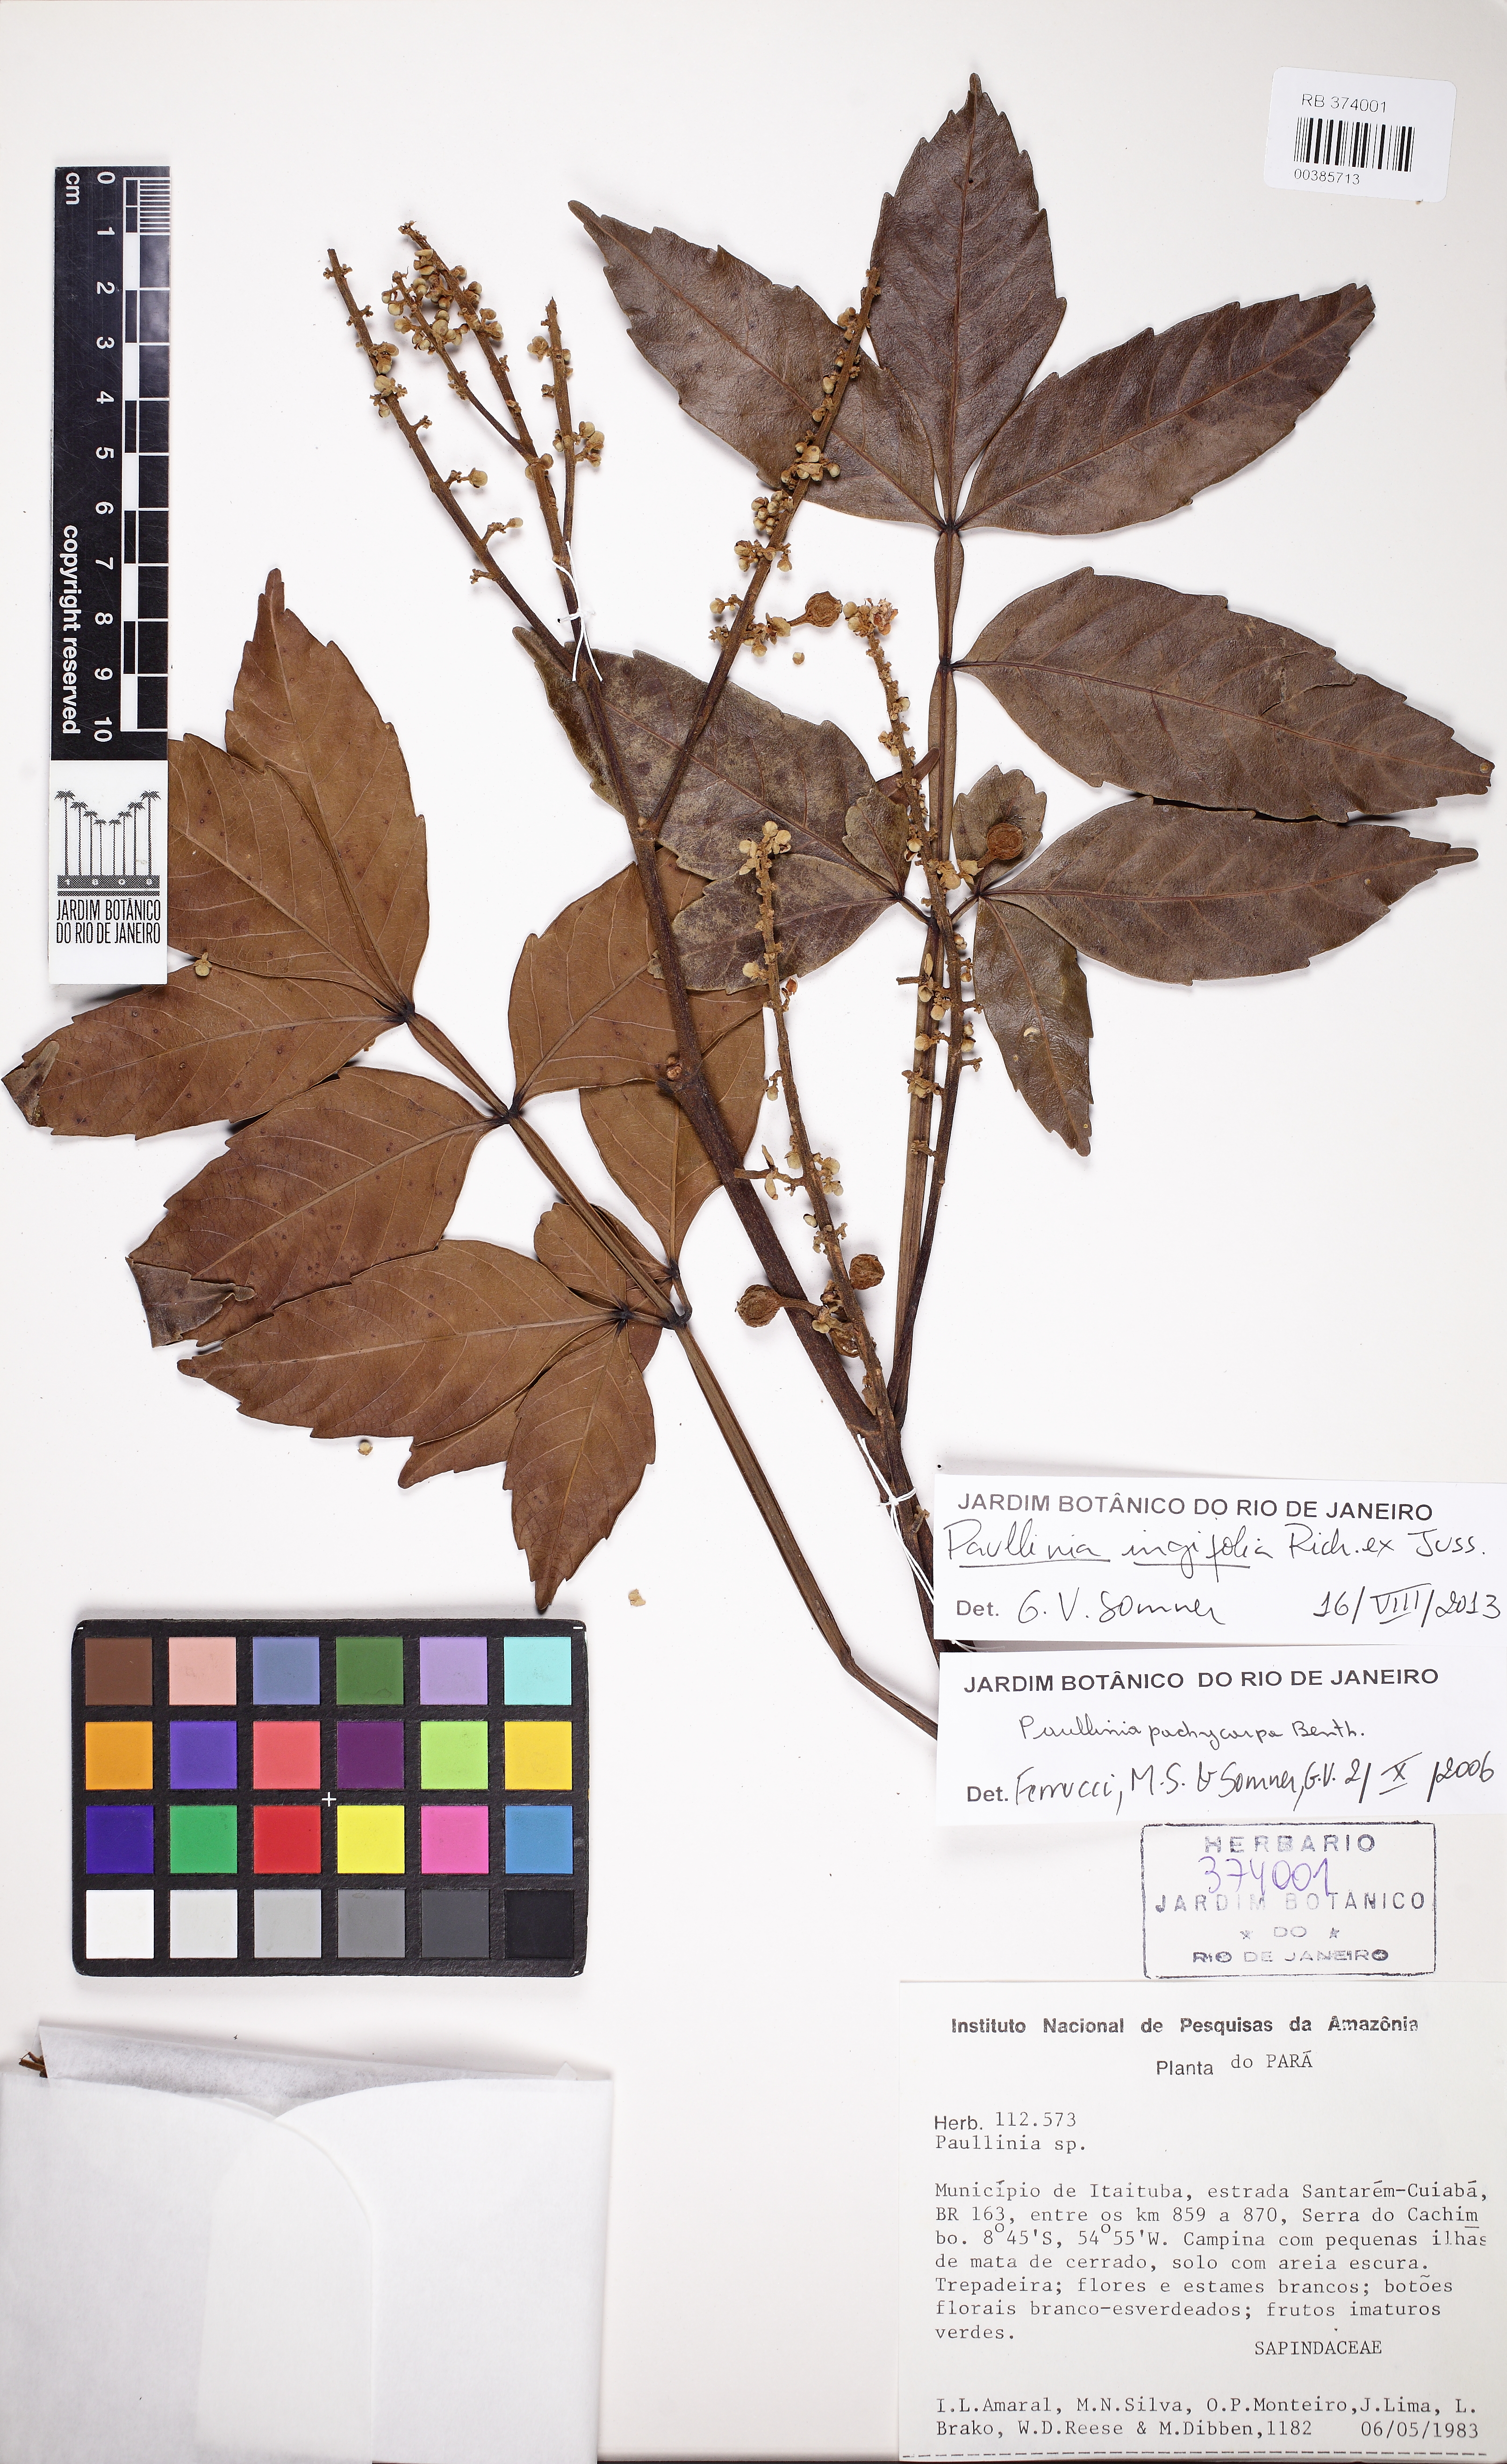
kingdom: Plantae
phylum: Tracheophyta
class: Magnoliopsida
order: Sapindales
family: Sapindaceae
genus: Paullinia
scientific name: Paullinia ingifolia
